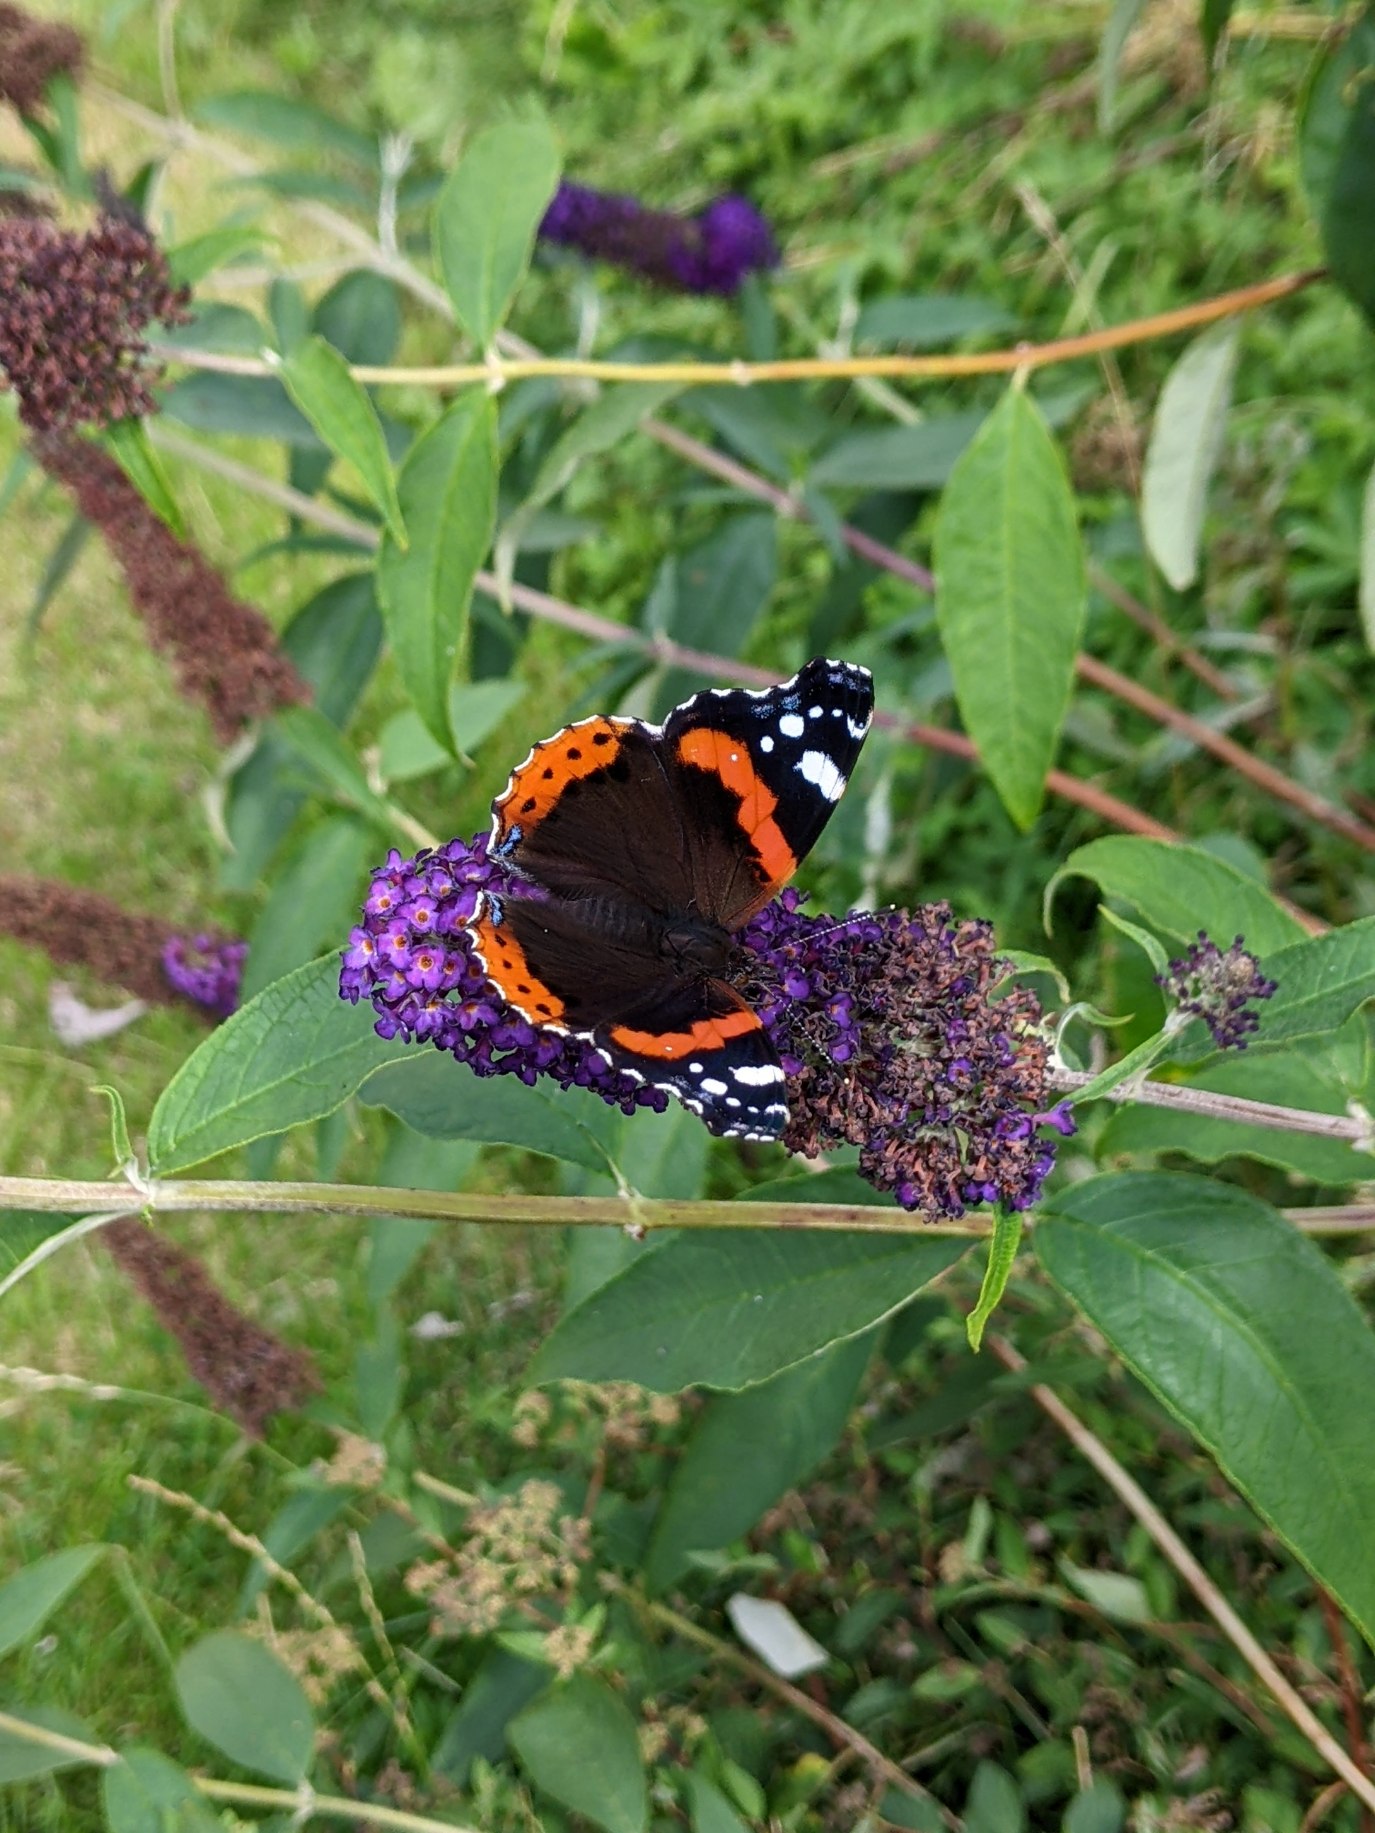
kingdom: Animalia
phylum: Arthropoda
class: Insecta
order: Lepidoptera
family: Nymphalidae
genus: Vanessa
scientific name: Vanessa atalanta
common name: Admiral
